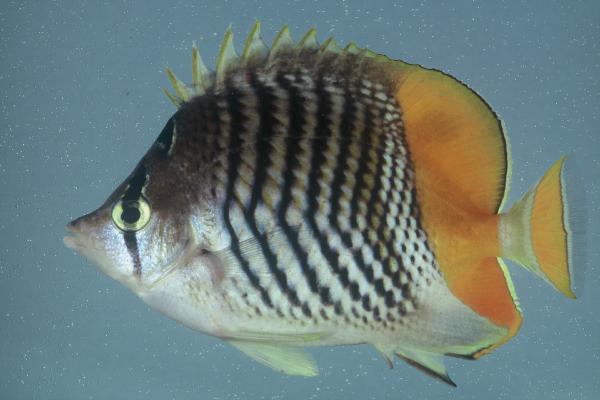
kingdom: Animalia
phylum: Chordata
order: Perciformes
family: Chaetodontidae
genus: Chaetodon
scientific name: Chaetodon madagaskariensis
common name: Madagascar butterflyfish
